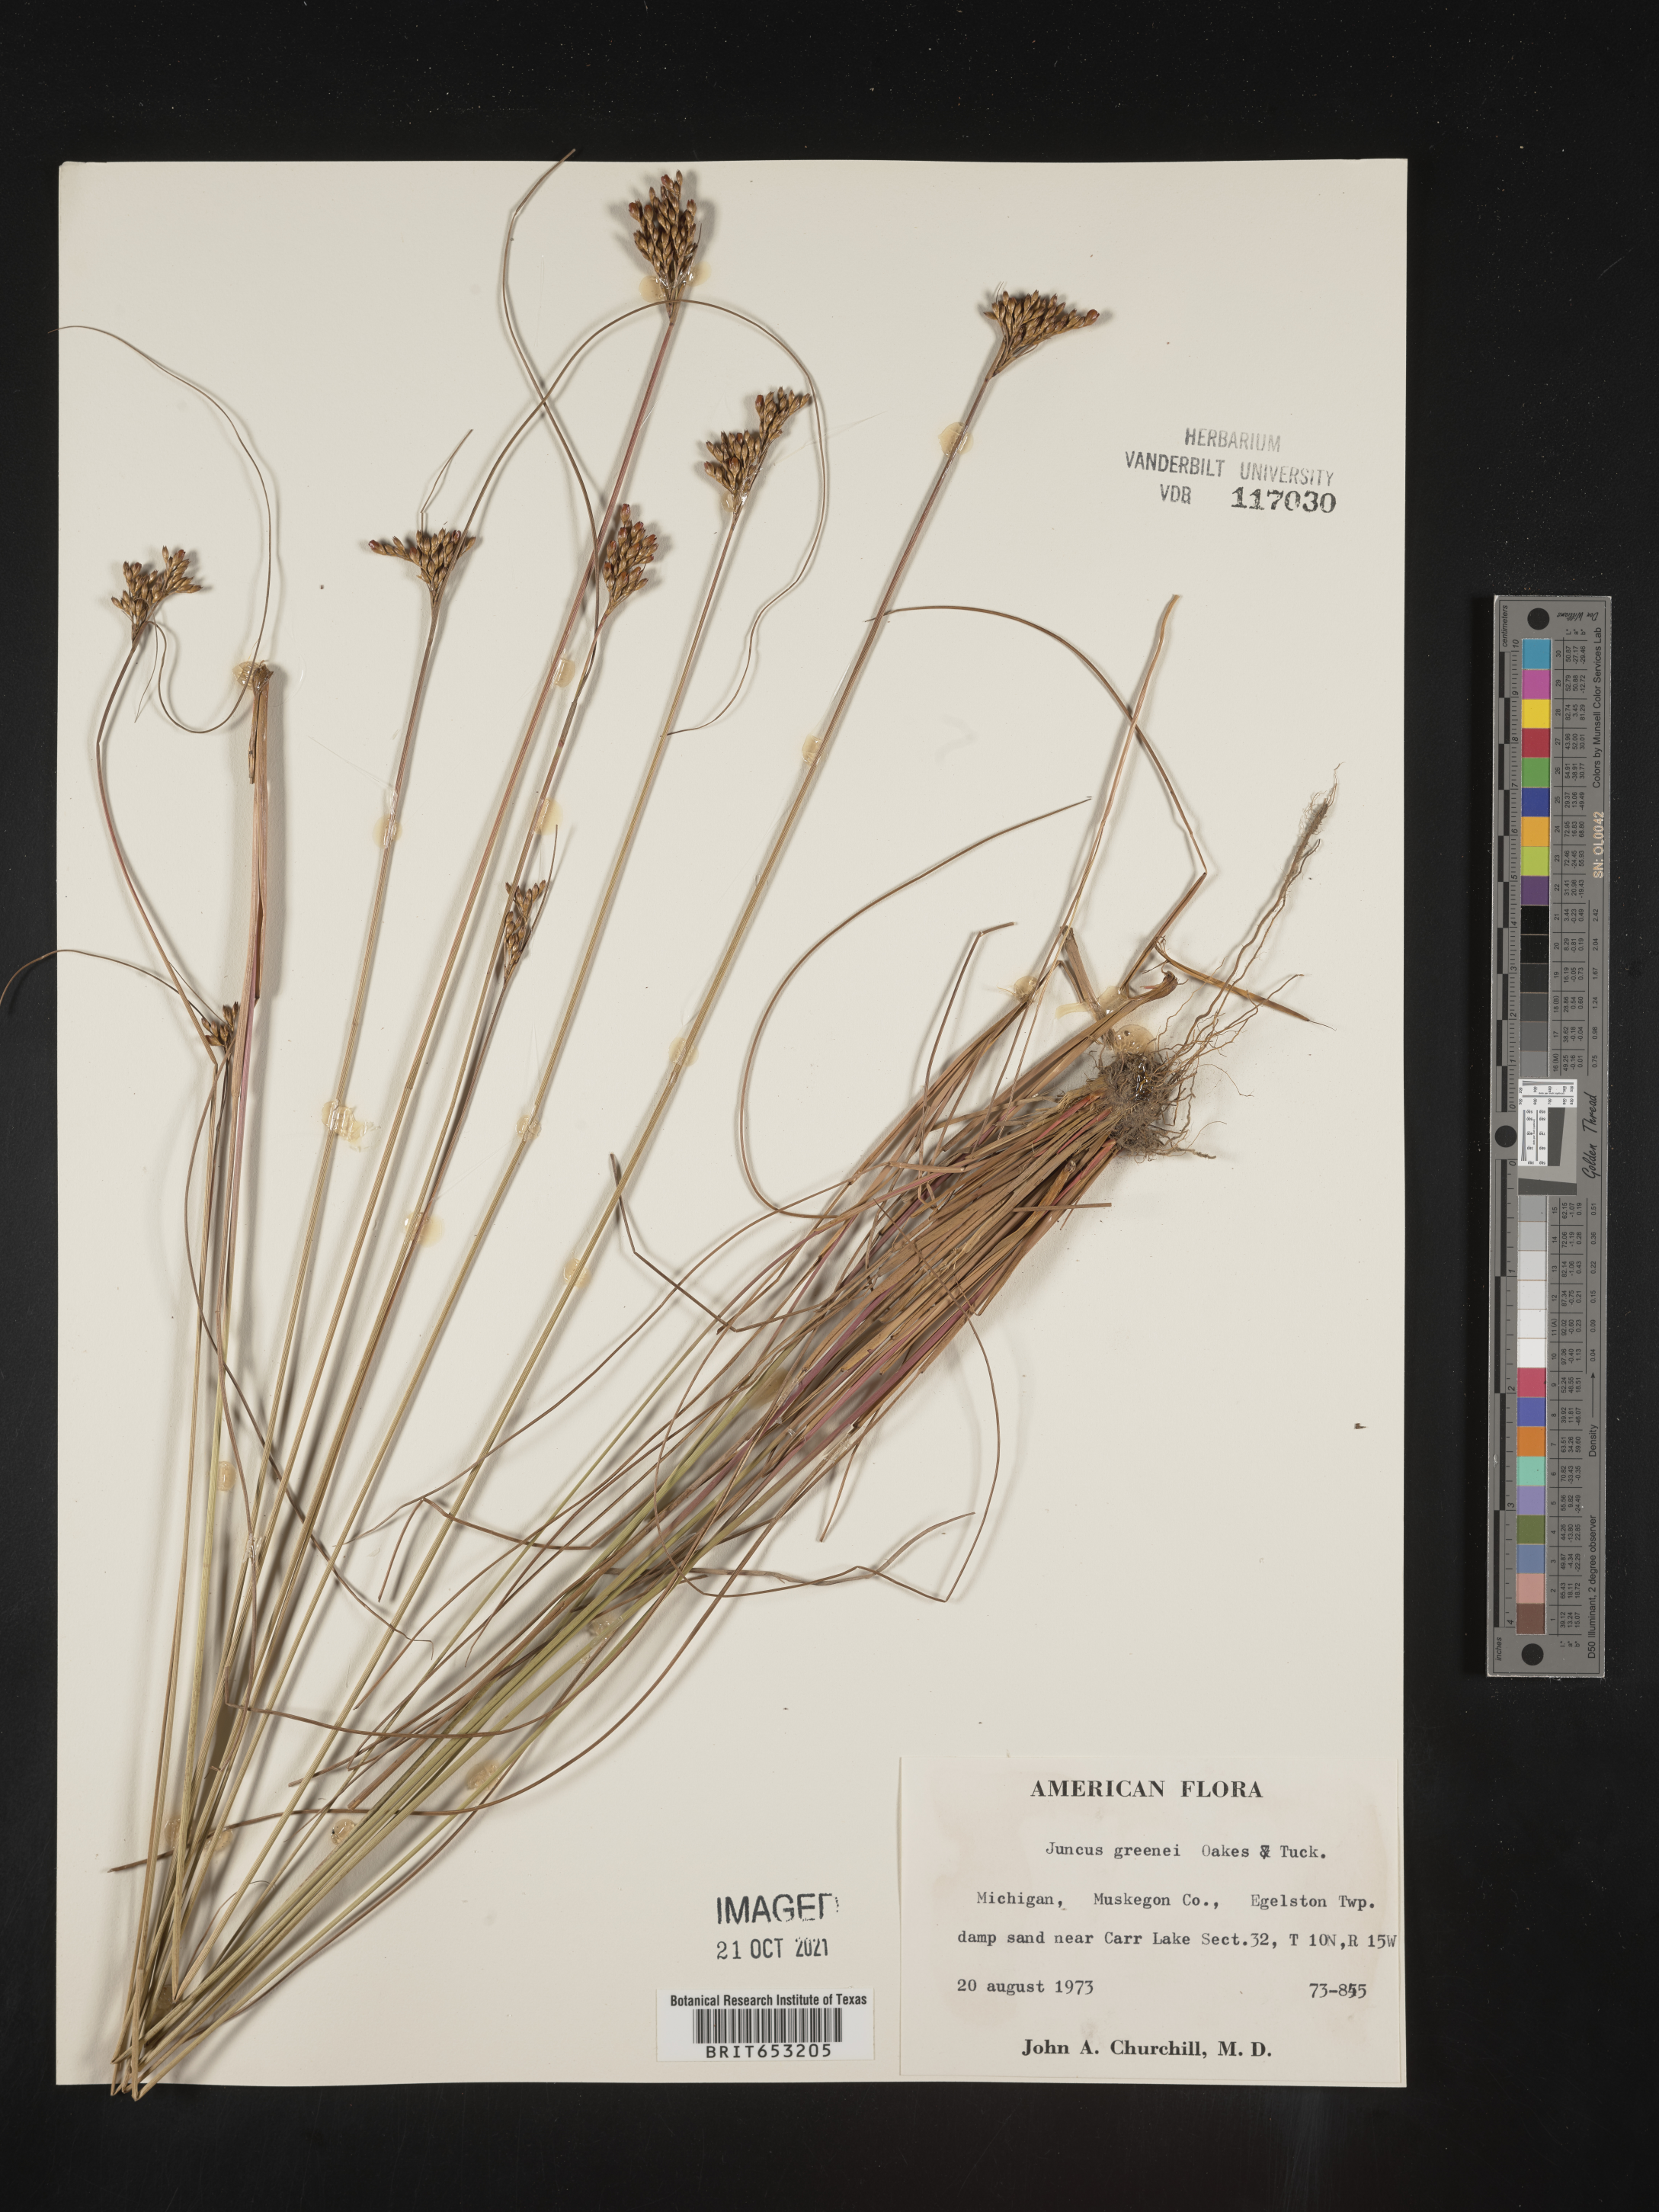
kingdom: Plantae
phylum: Tracheophyta
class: Liliopsida
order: Poales
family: Juncaceae
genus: Juncus
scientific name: Juncus greenei
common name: Greene's rush
